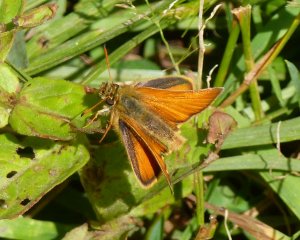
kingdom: Animalia
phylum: Arthropoda
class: Insecta
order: Lepidoptera
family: Hesperiidae
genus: Thymelicus
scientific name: Thymelicus lineola
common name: European Skipper
